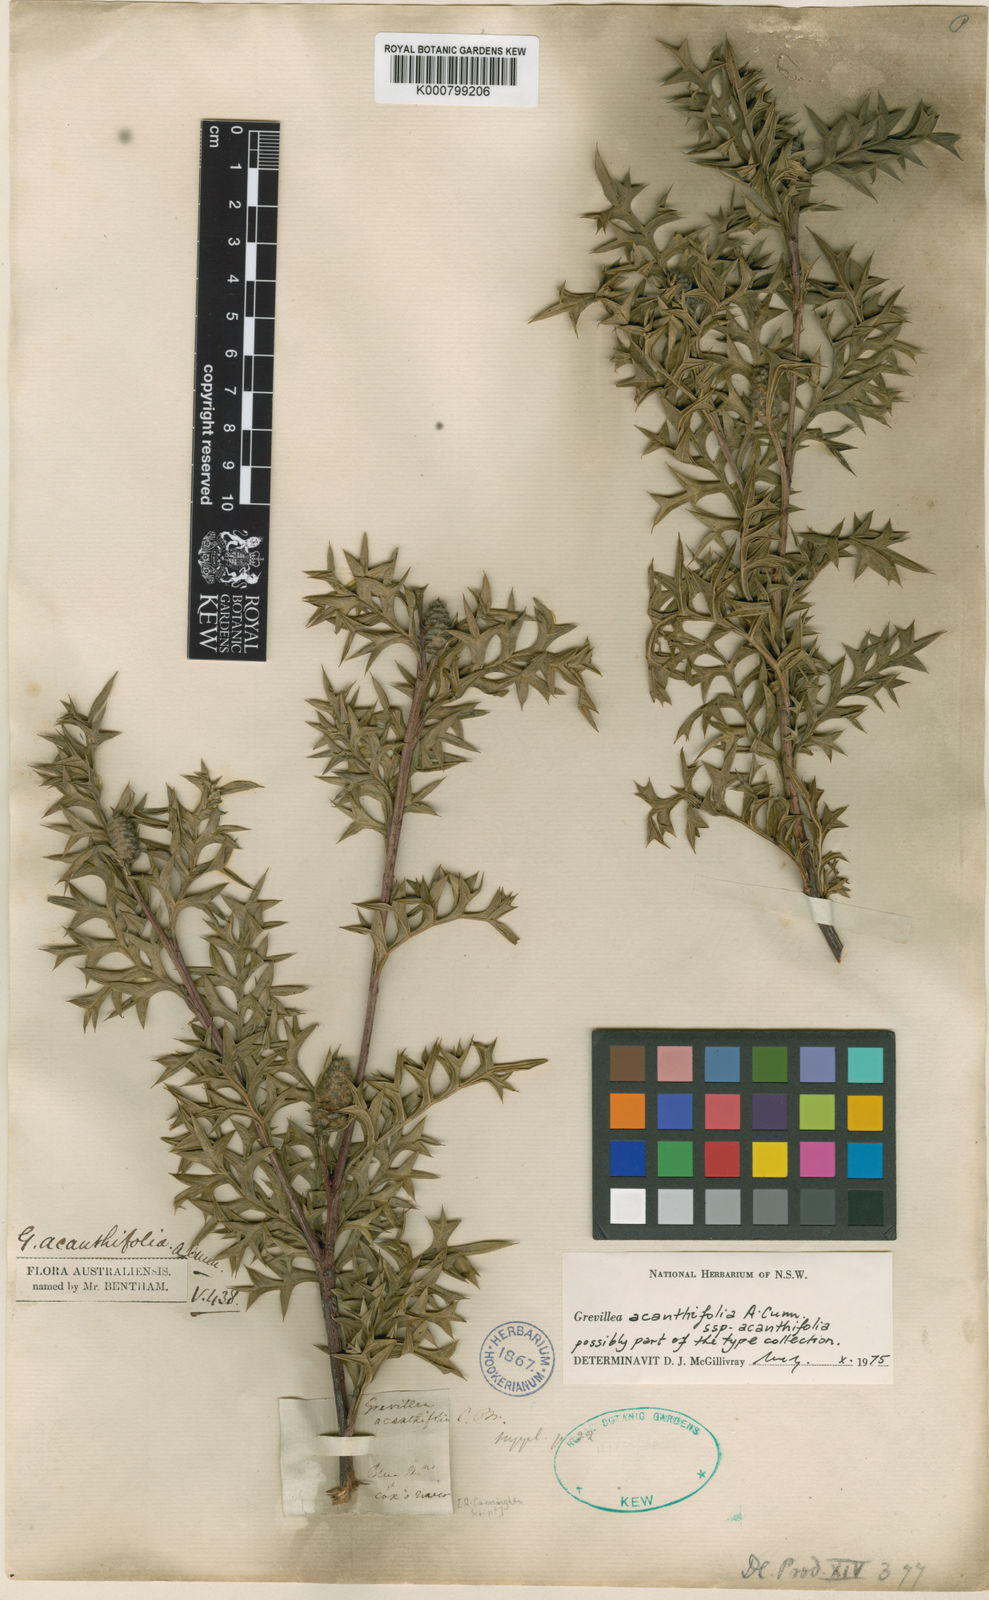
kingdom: Plantae
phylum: Tracheophyta
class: Magnoliopsida
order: Proteales
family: Proteaceae
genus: Grevillea
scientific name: Grevillea acanthifolia
